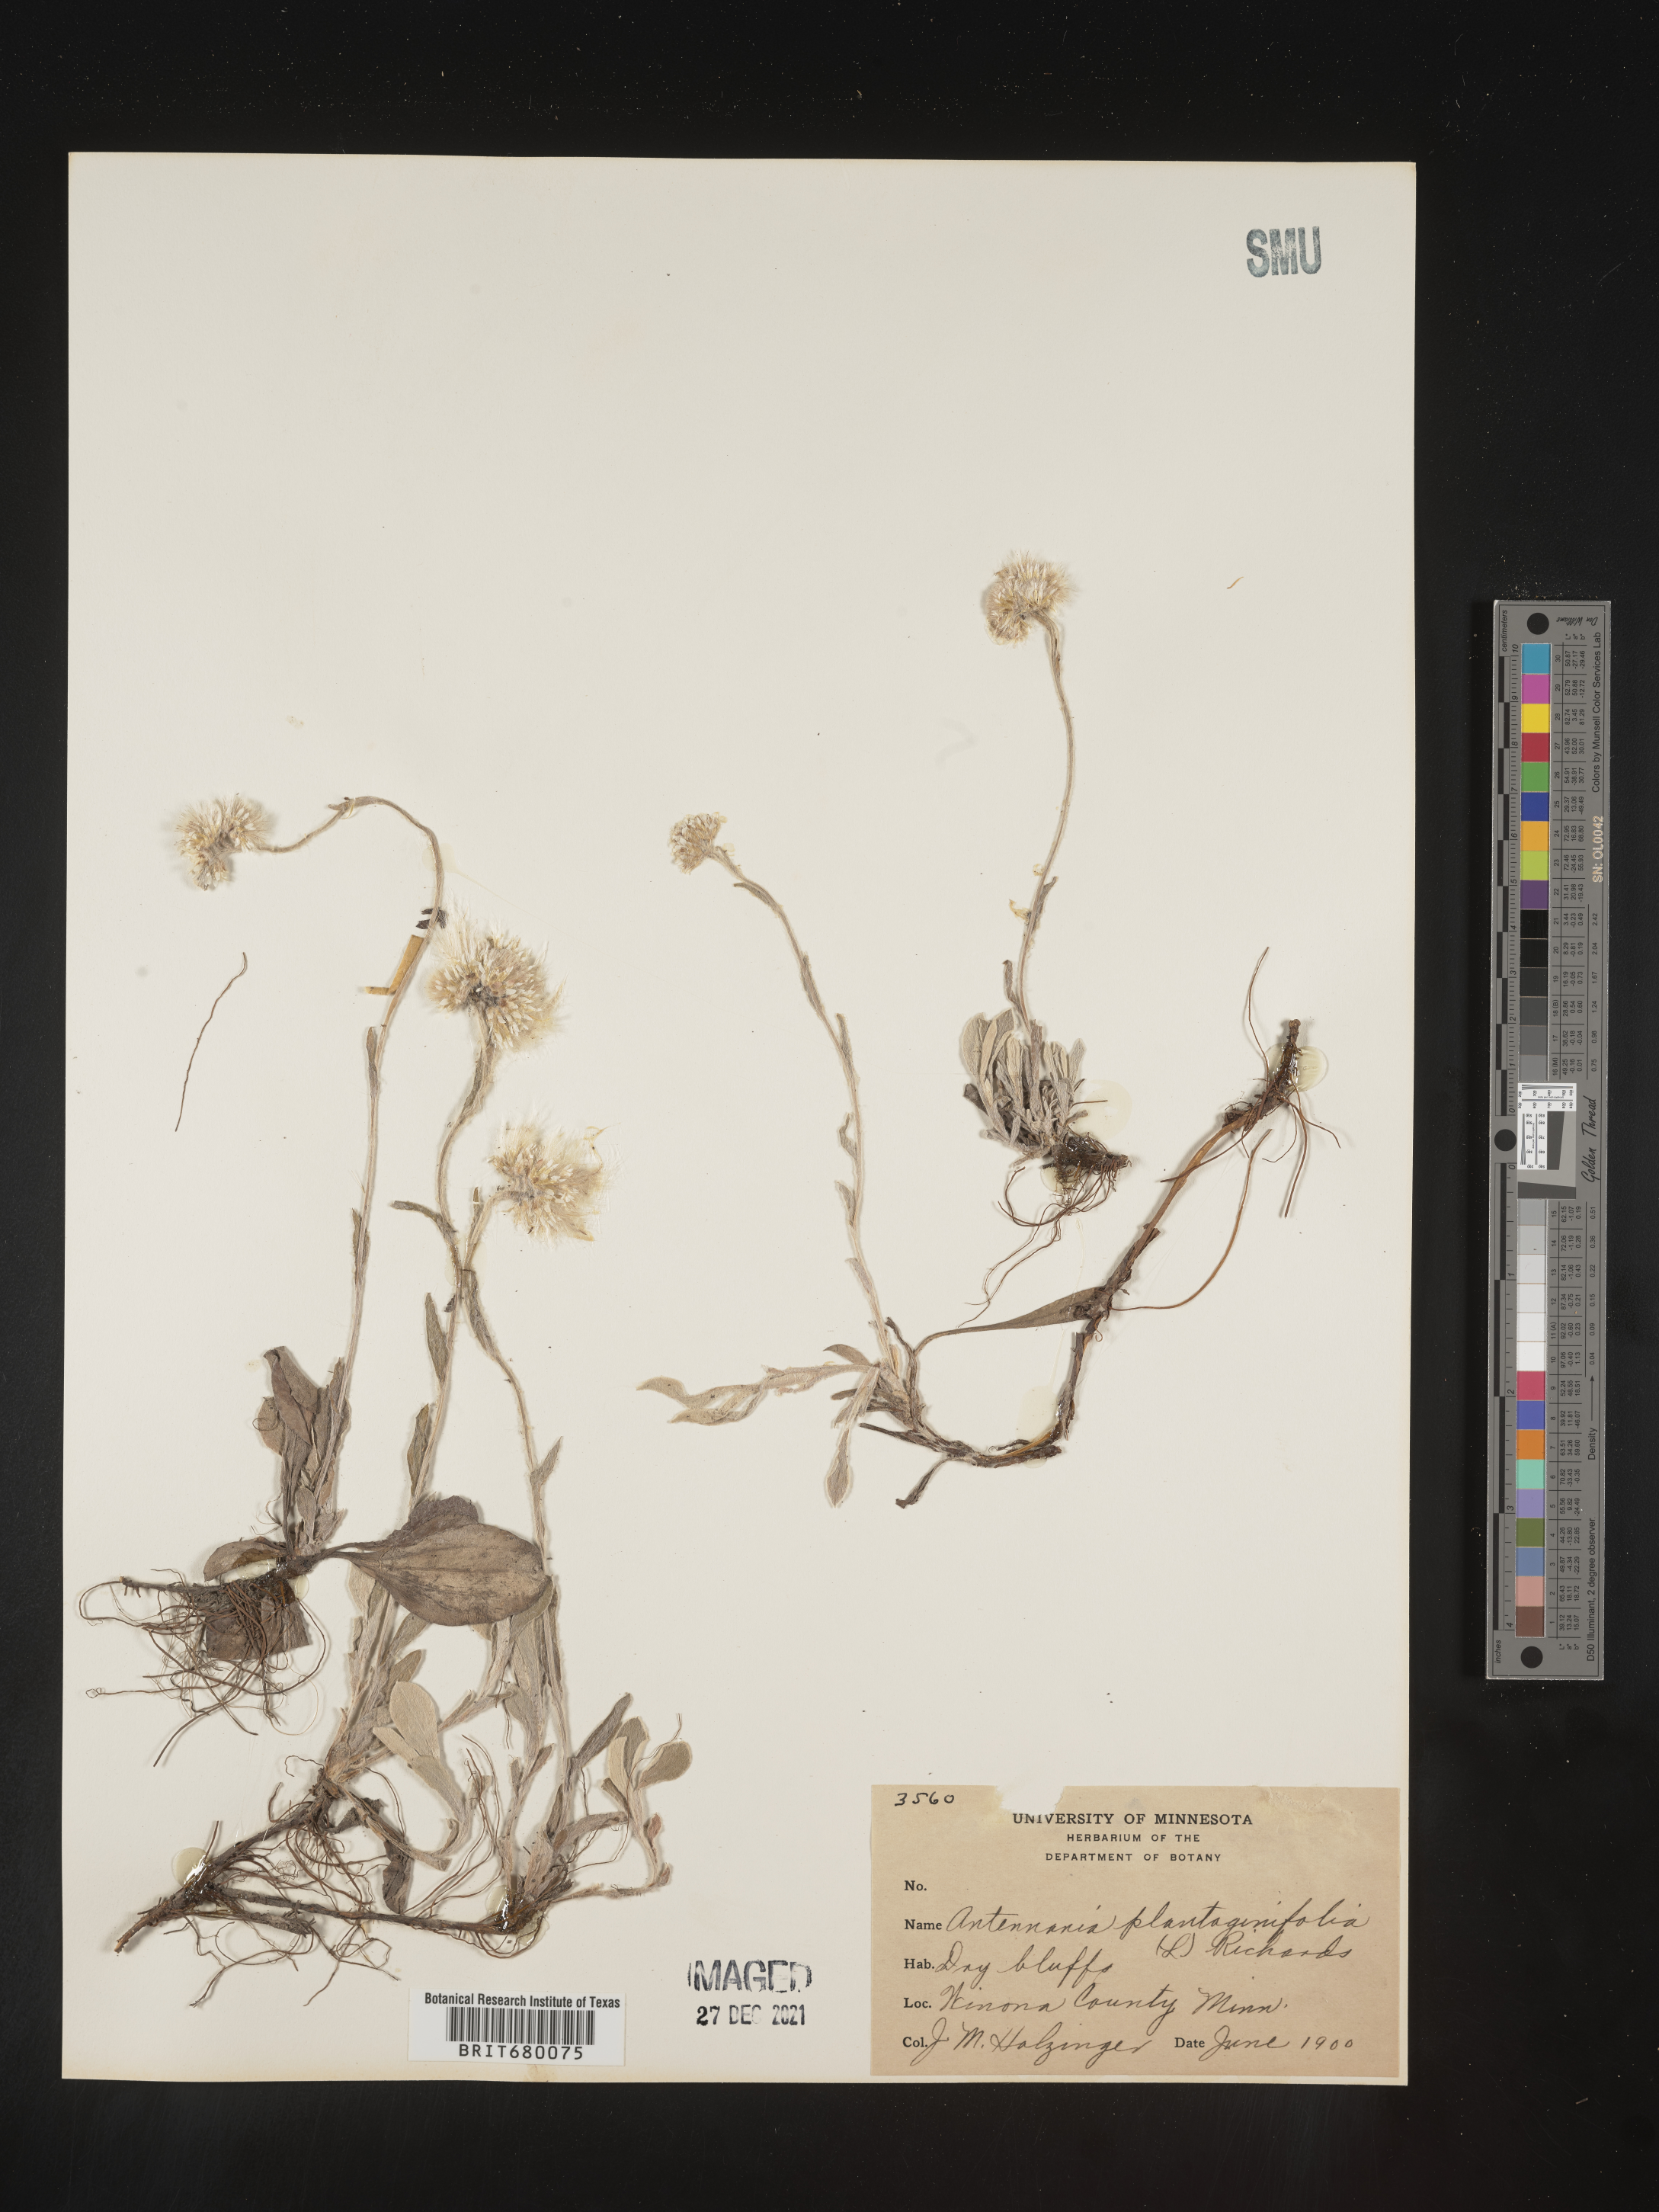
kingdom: Plantae
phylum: Tracheophyta
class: Magnoliopsida
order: Asterales
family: Asteraceae
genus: Antennaria
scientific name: Antennaria plantaginifolia
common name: Plantain-leaved pussytoes
